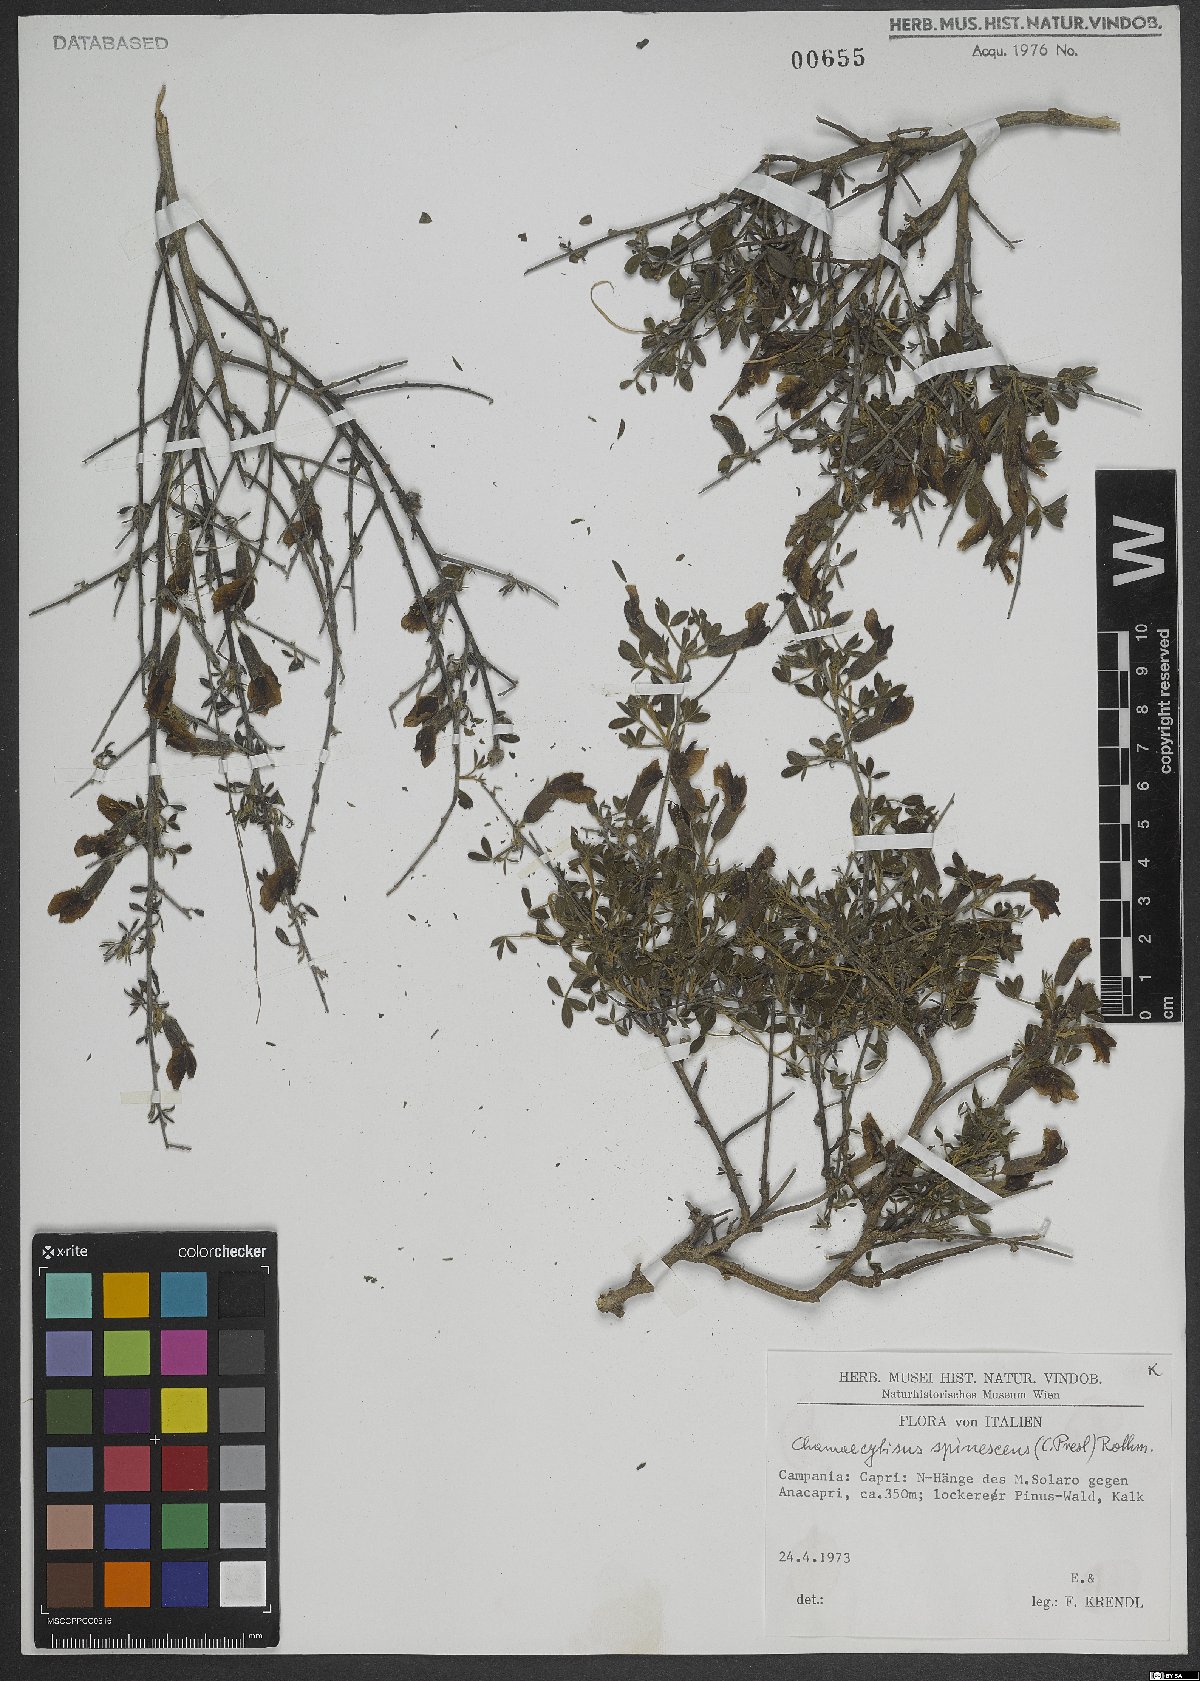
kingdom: Plantae
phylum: Tracheophyta
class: Magnoliopsida
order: Fabales
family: Fabaceae
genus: Chamaecytisus
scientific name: Chamaecytisus spinescens
